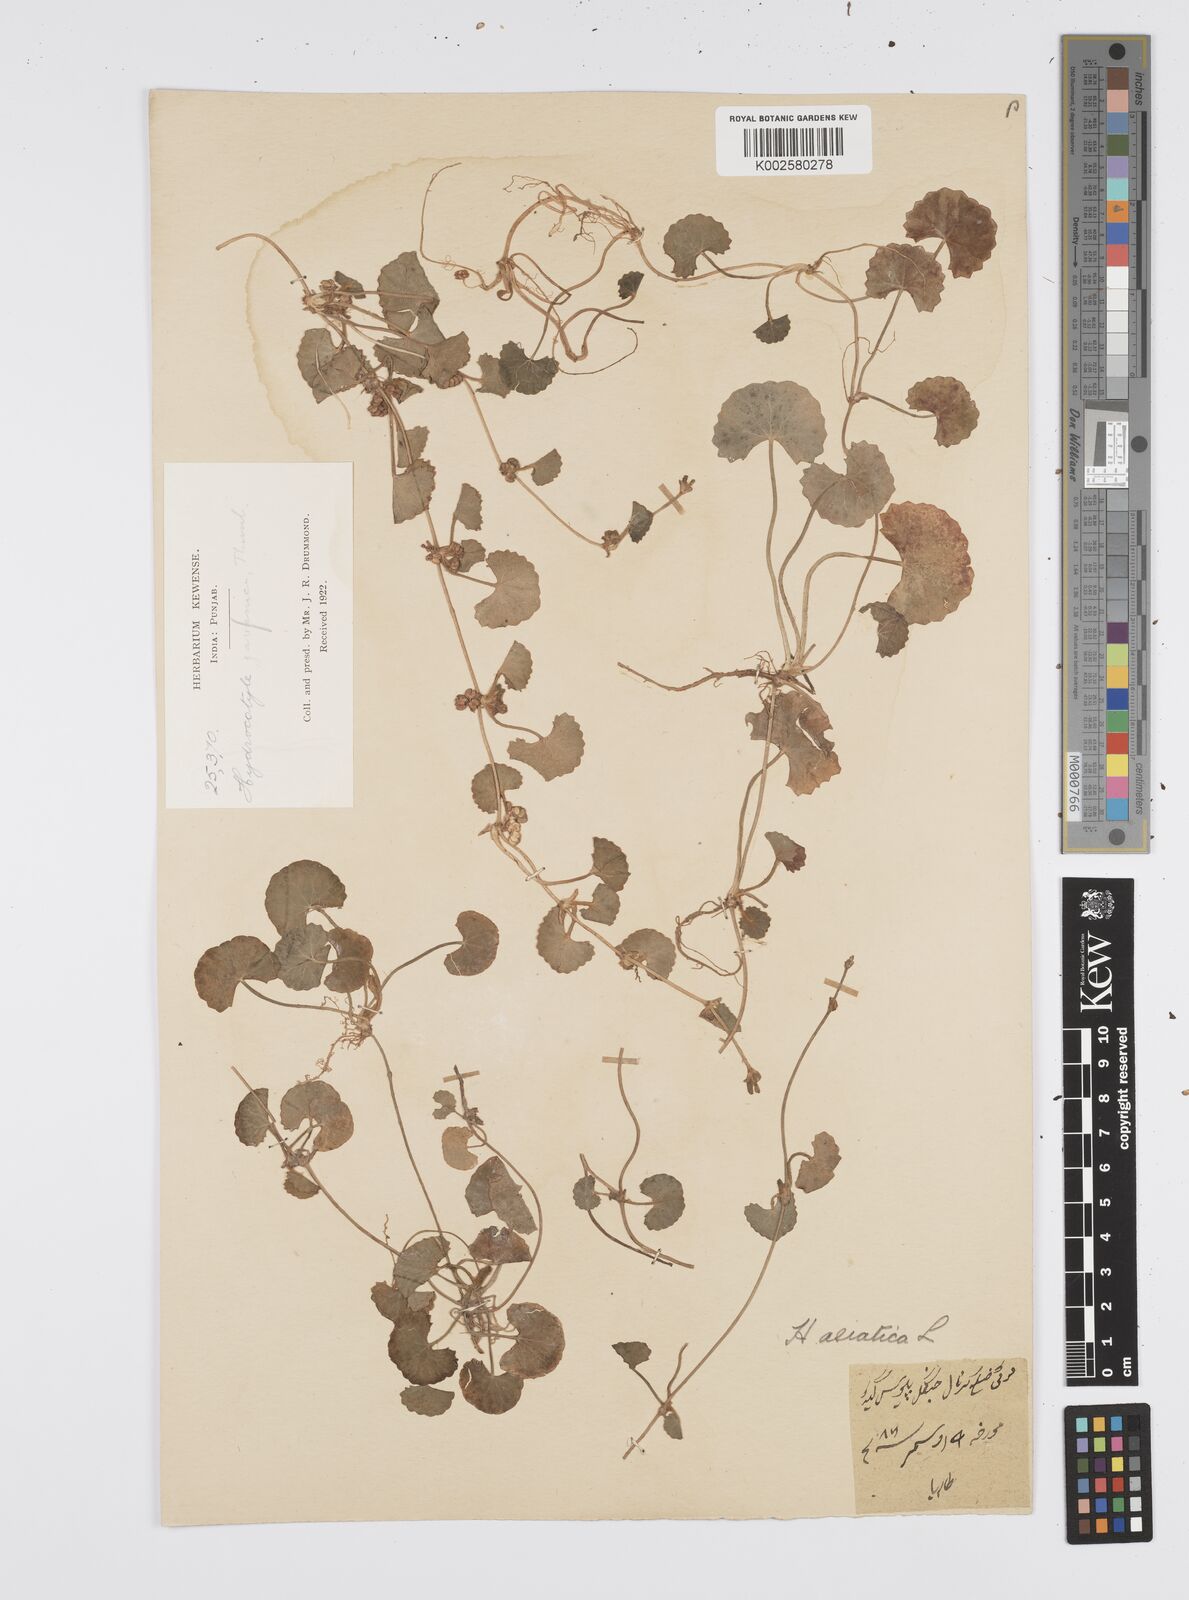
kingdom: Plantae
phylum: Tracheophyta
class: Magnoliopsida
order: Apiales
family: Apiaceae
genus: Centella
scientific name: Centella asiatica
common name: Spadeleaf
